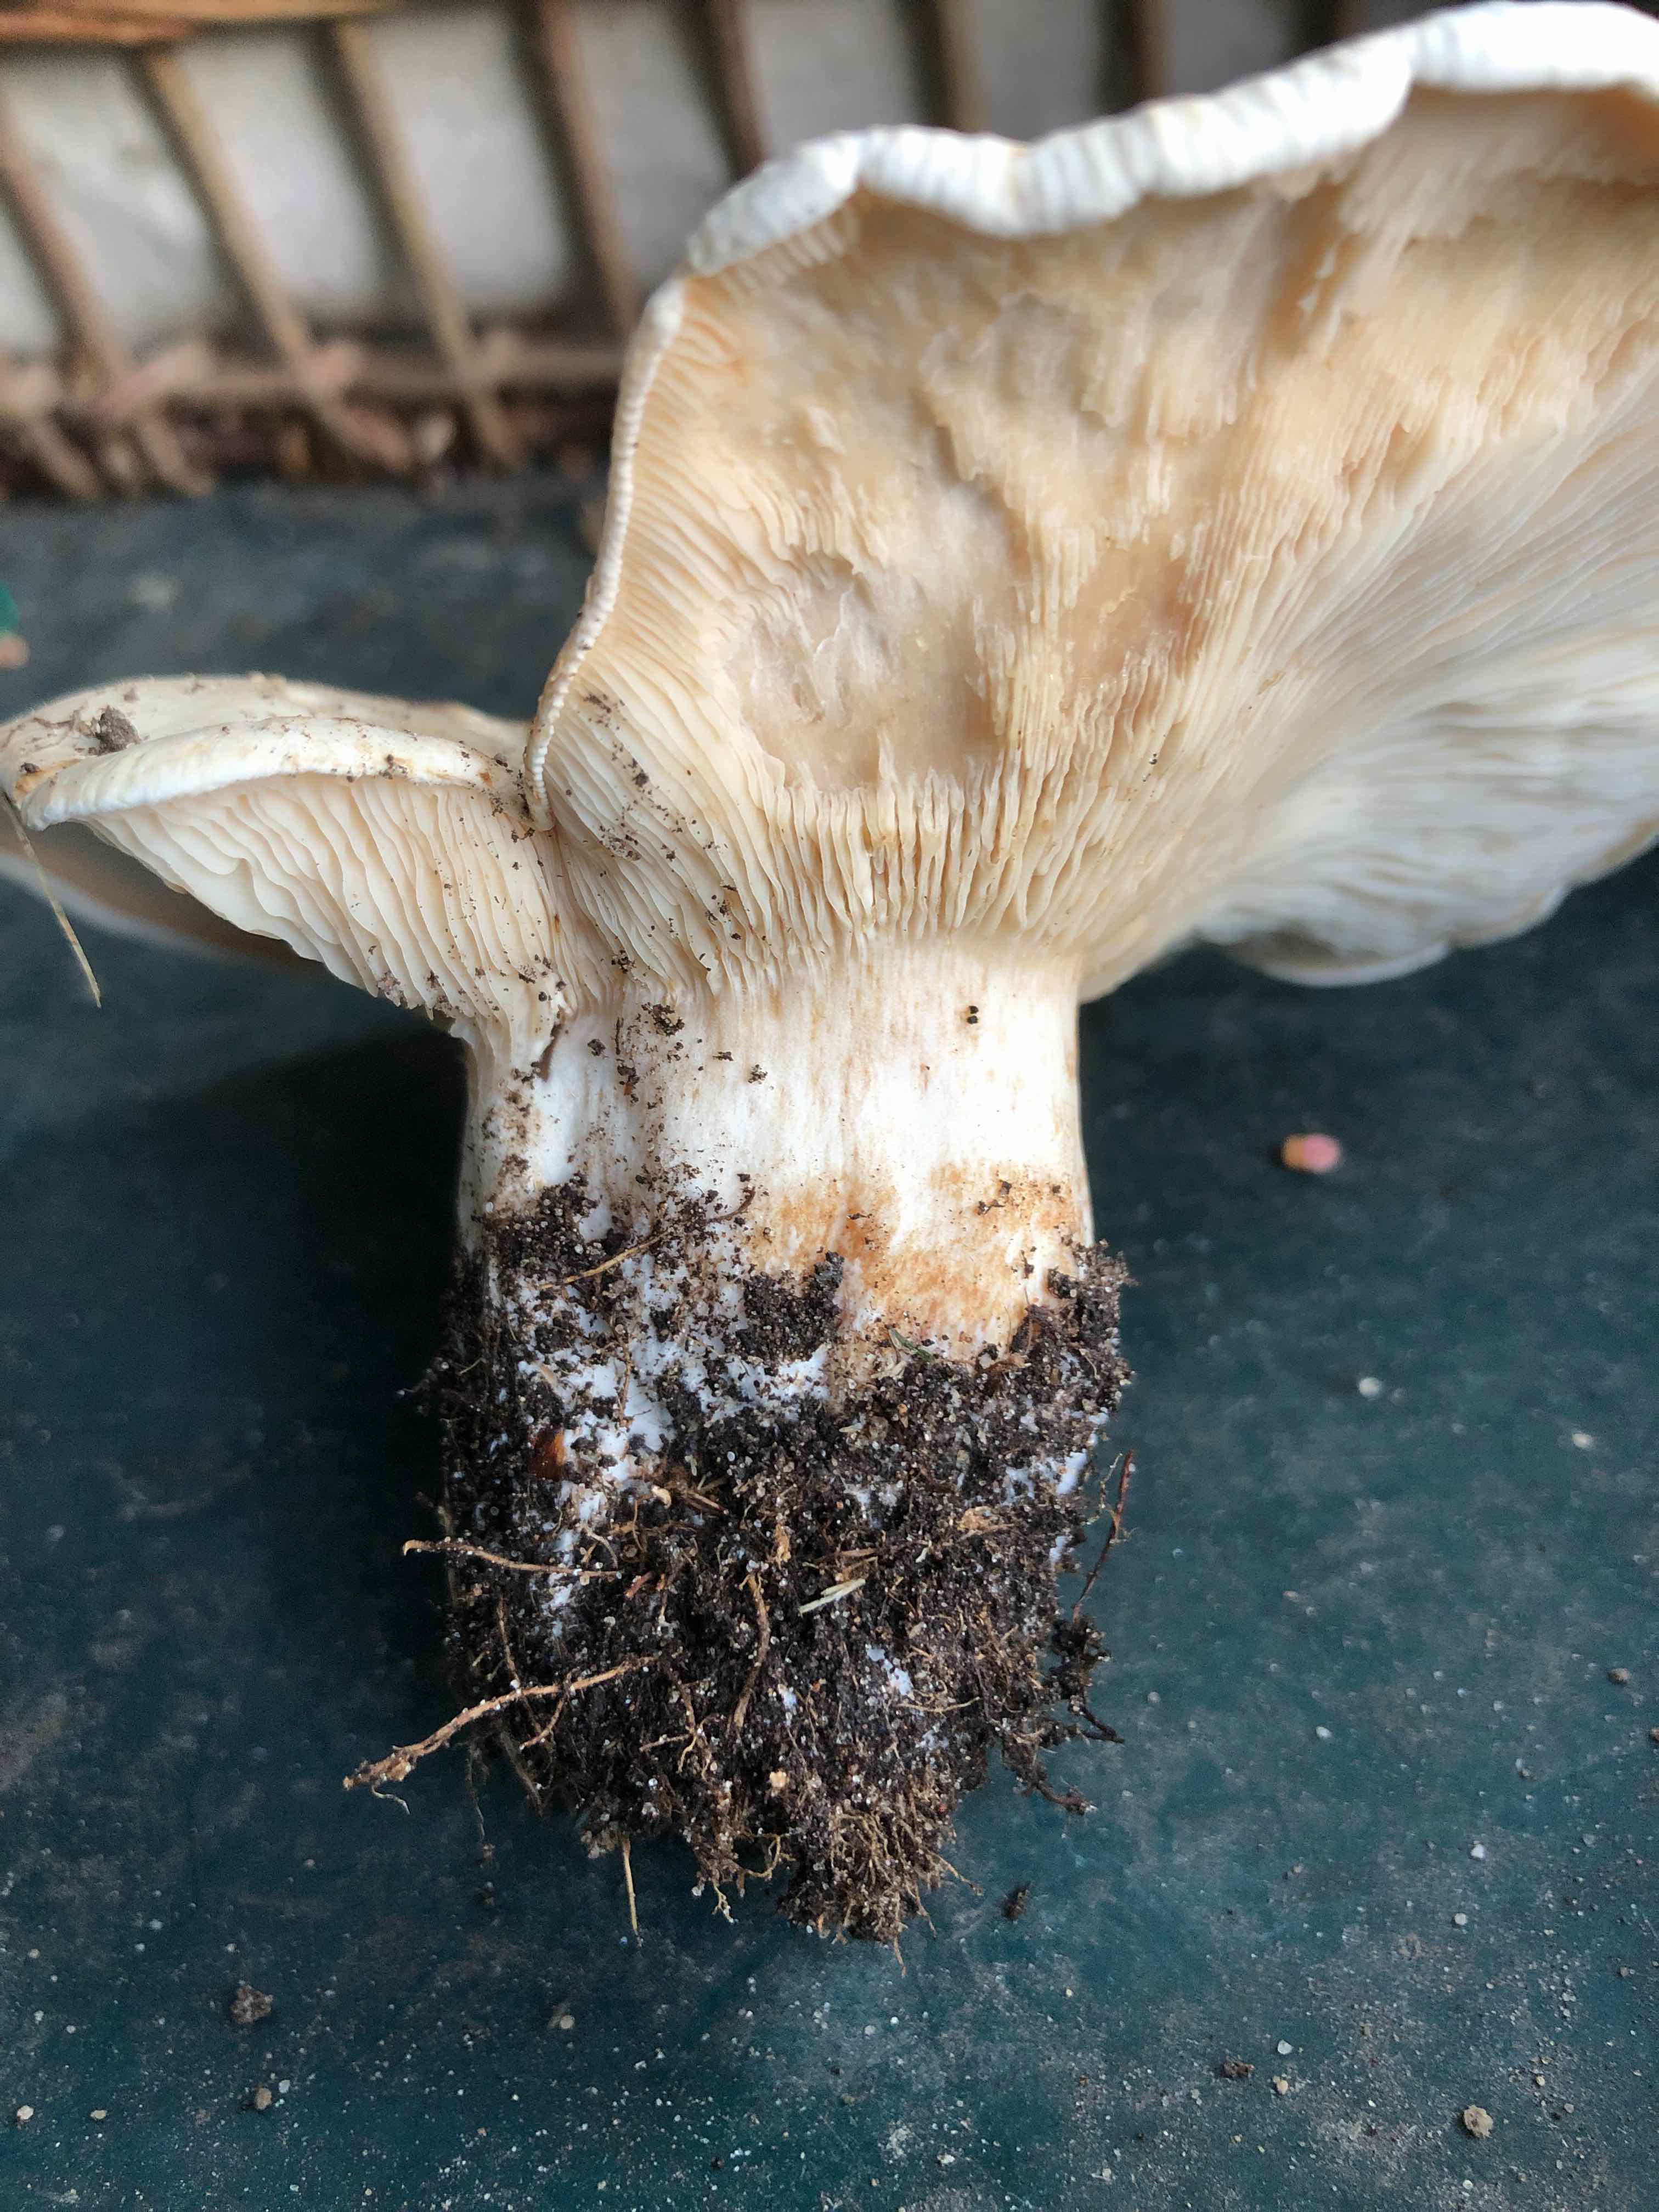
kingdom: Fungi
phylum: Basidiomycota
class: Agaricomycetes
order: Agaricales
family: Tricholomataceae
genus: Aspropaxillus
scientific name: Aspropaxillus giganteus
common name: kæmpe-tragtridderhat
